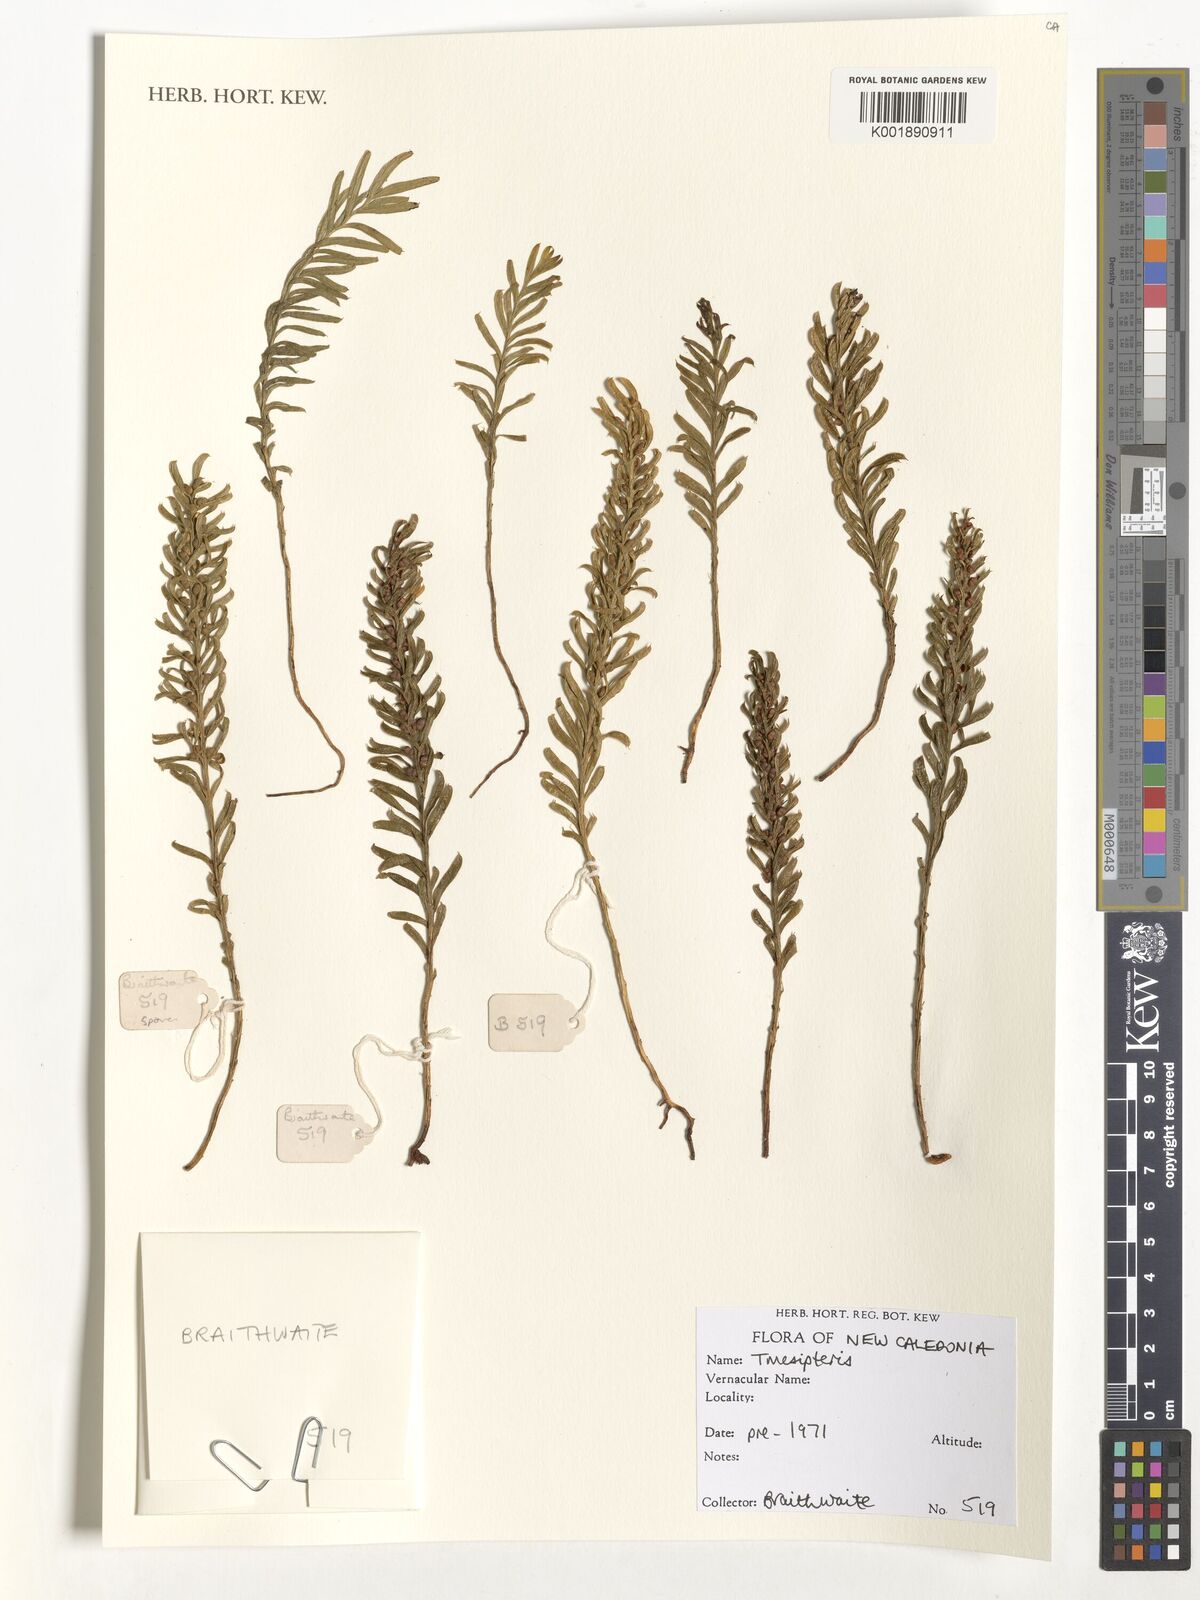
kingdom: Plantae
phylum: Tracheophyta
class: Polypodiopsida
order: Psilotales
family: Psilotaceae
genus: Tmesipteris
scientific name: Tmesipteris
